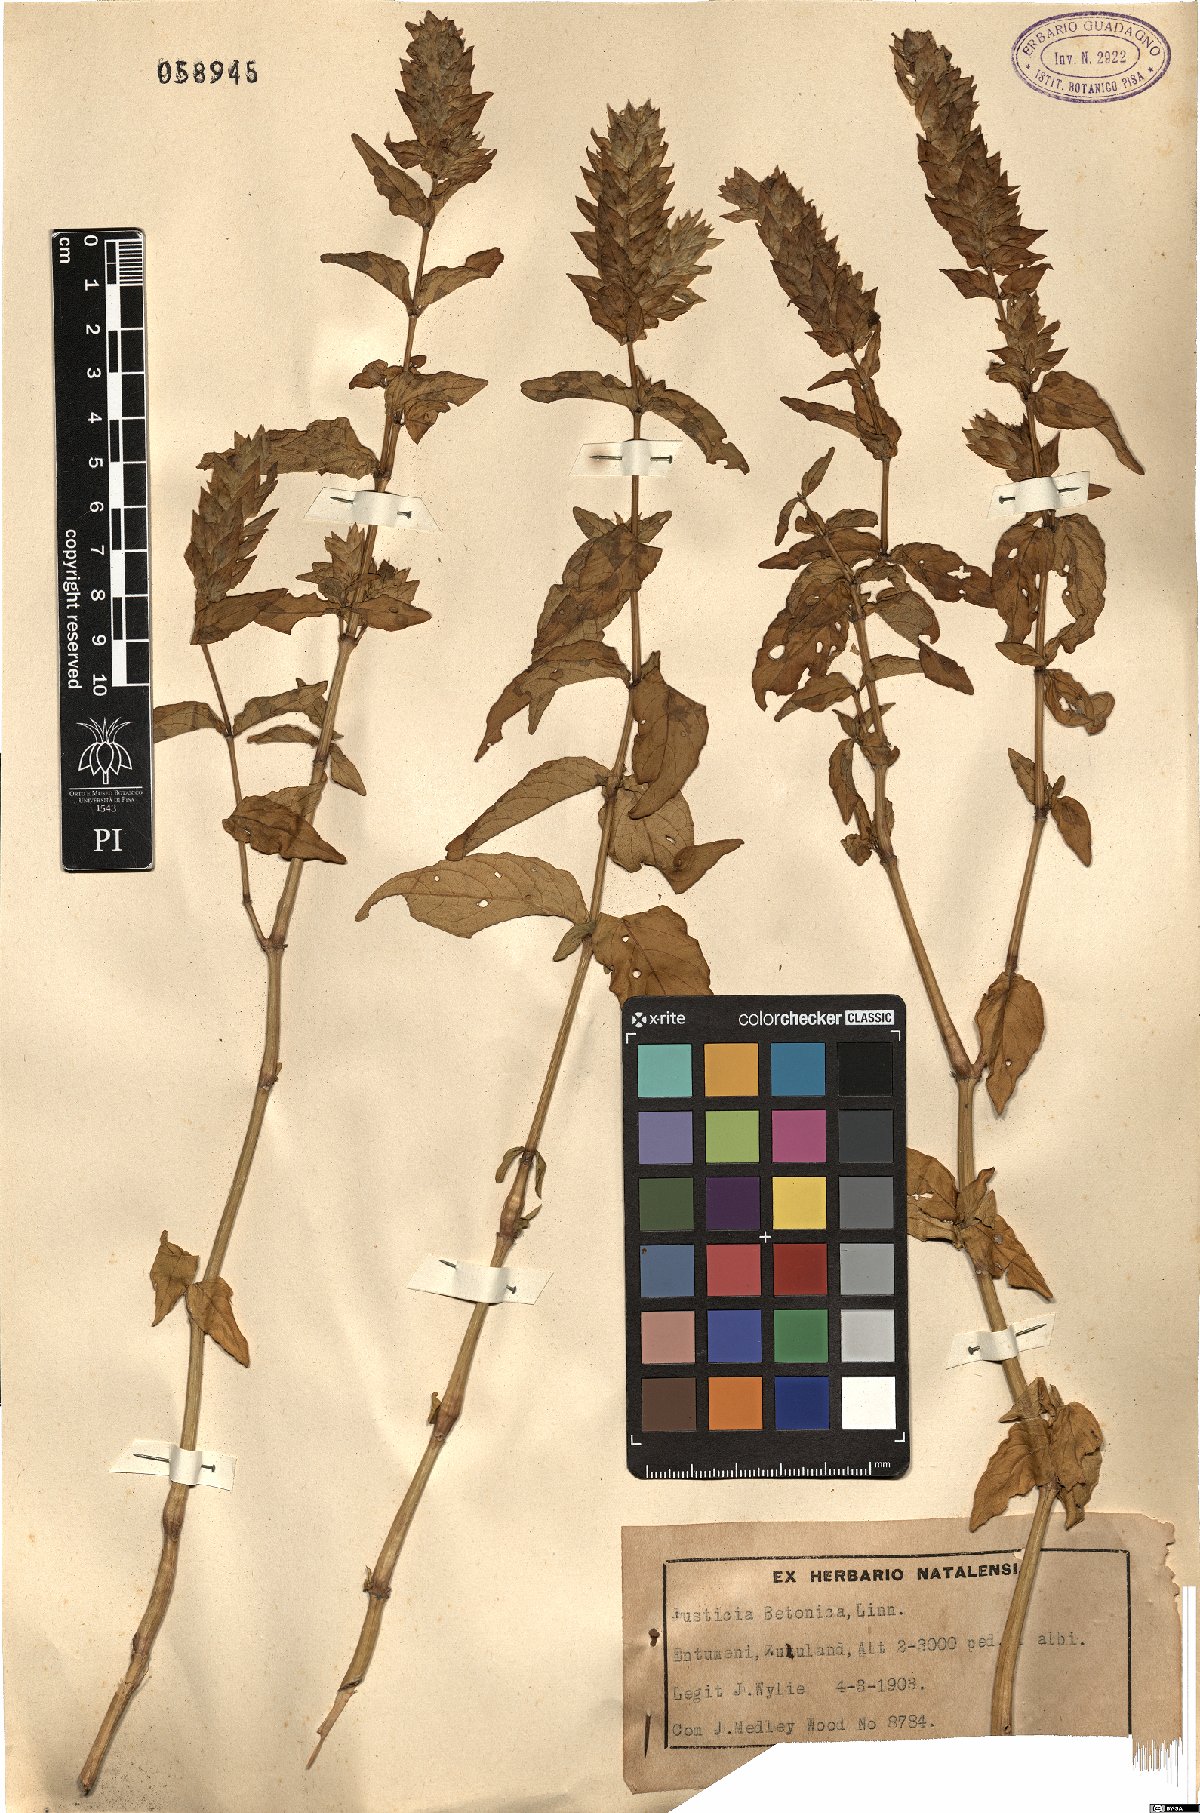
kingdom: Plantae
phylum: Tracheophyta
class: Magnoliopsida
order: Lamiales
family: Acanthaceae
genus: Nicoteba
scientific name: Nicoteba betonica
